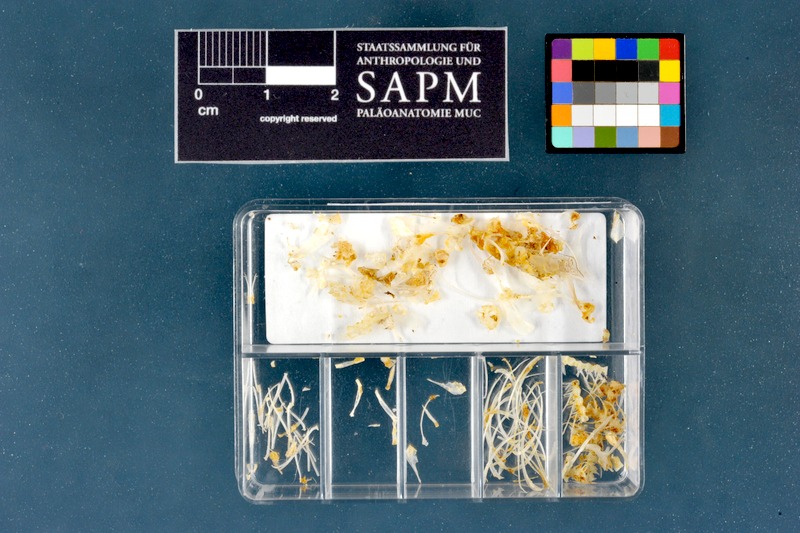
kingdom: Animalia
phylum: Chordata
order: Cypriniformes
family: Cyprinidae
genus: Phoxinus
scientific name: Phoxinus phoxinus
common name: Minnow
